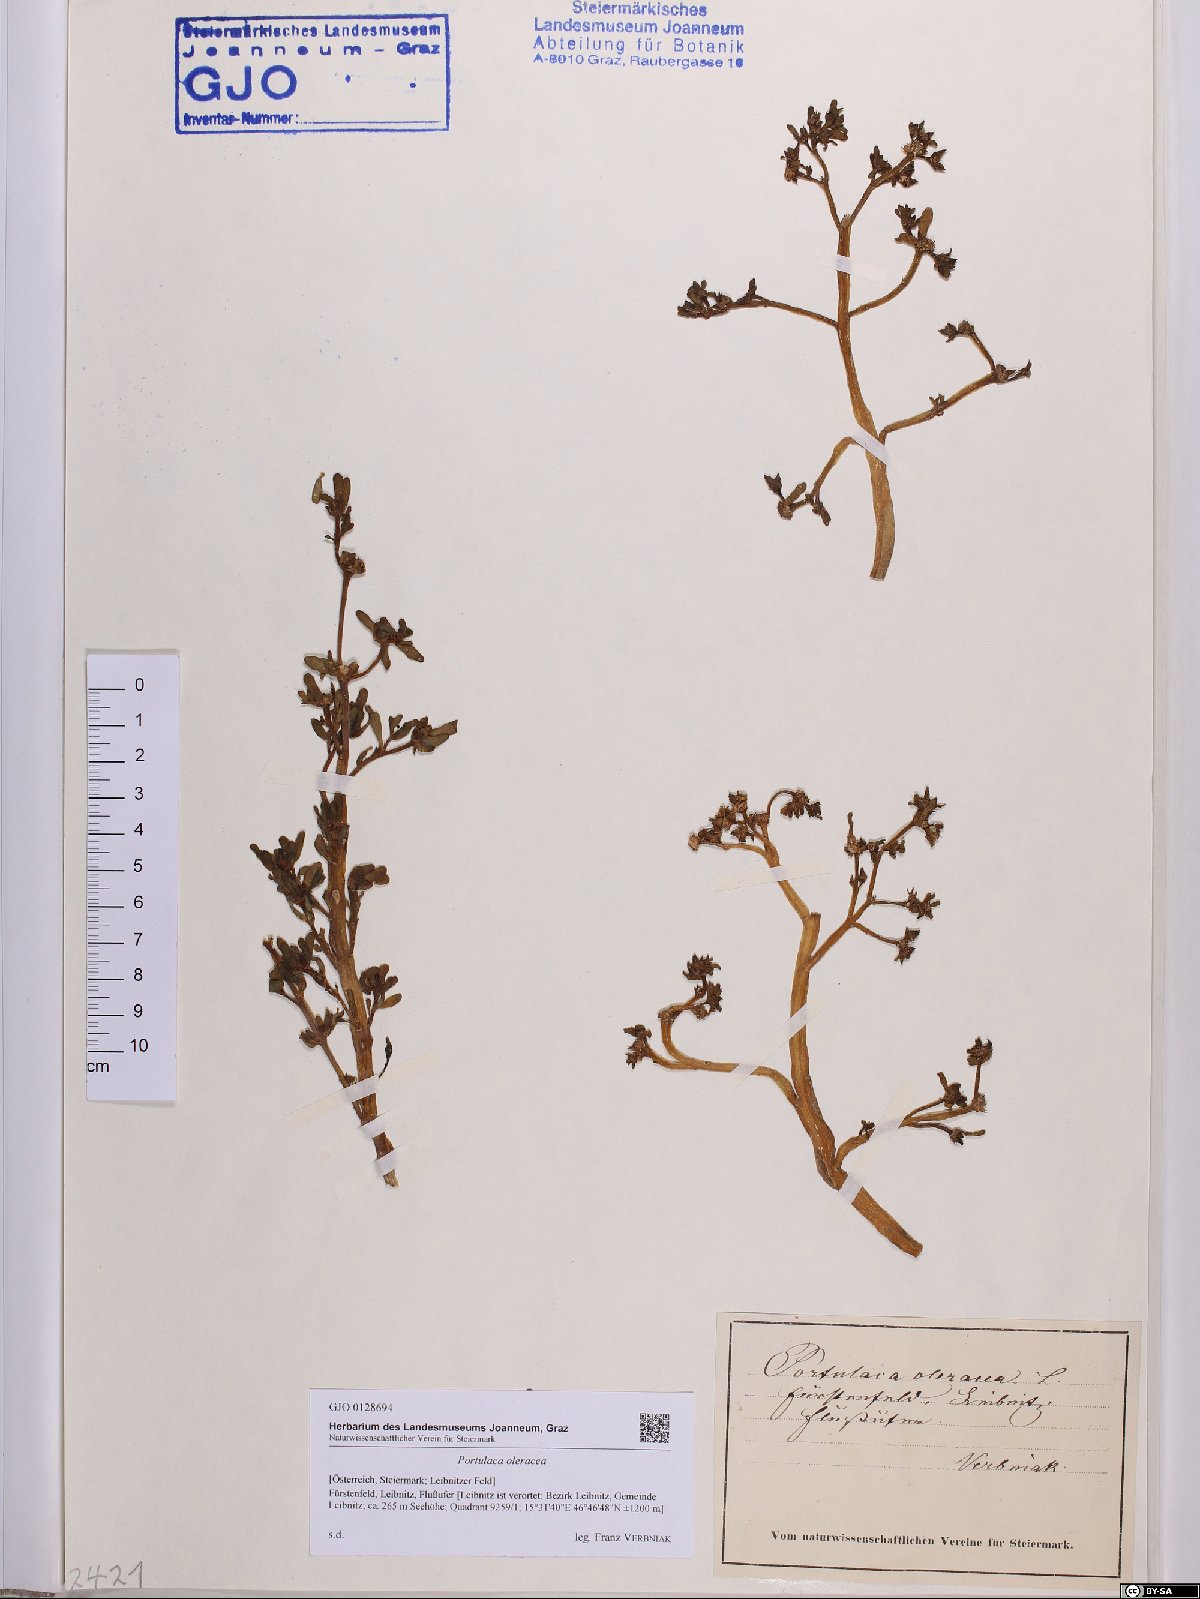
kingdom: Plantae
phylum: Tracheophyta
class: Magnoliopsida
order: Caryophyllales
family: Portulacaceae
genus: Portulaca
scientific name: Portulaca oleracea
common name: Common purslane
